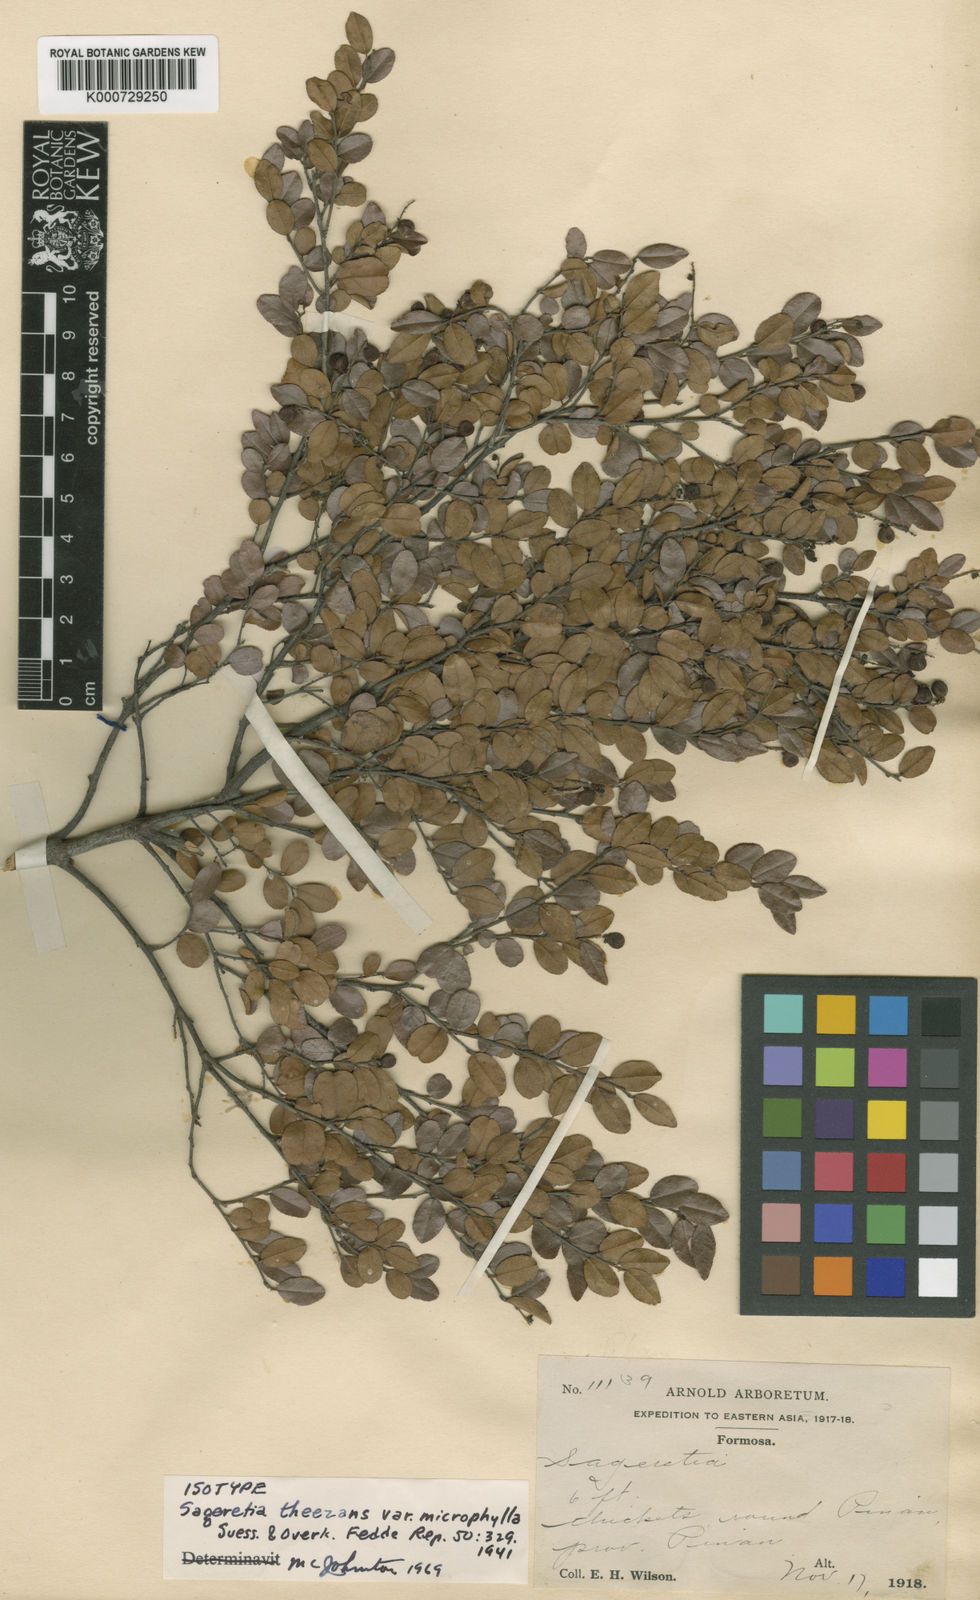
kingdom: Plantae
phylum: Tracheophyta
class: Magnoliopsida
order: Rosales
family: Rhamnaceae
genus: Sageretia
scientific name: Sageretia
